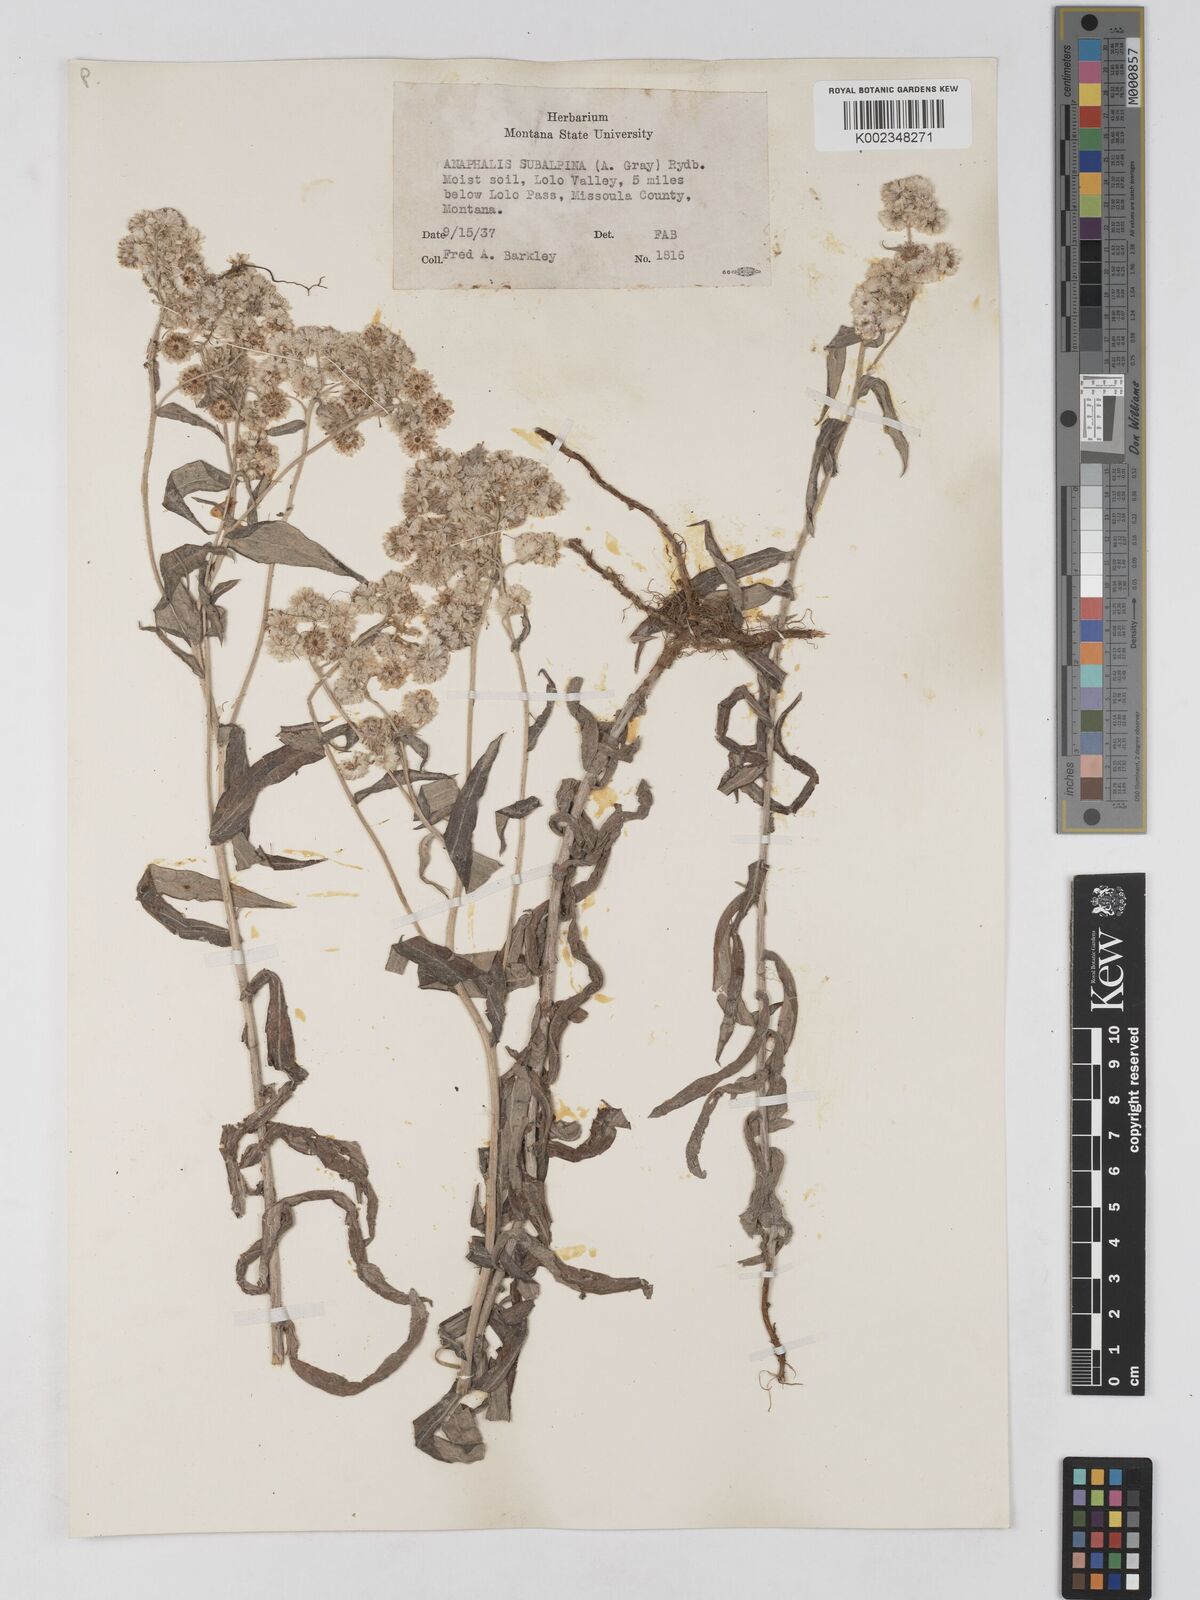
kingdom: Plantae
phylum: Tracheophyta
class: Magnoliopsida
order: Asterales
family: Asteraceae
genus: Anaphalis
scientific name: Anaphalis margaritacea
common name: Pearly everlasting
